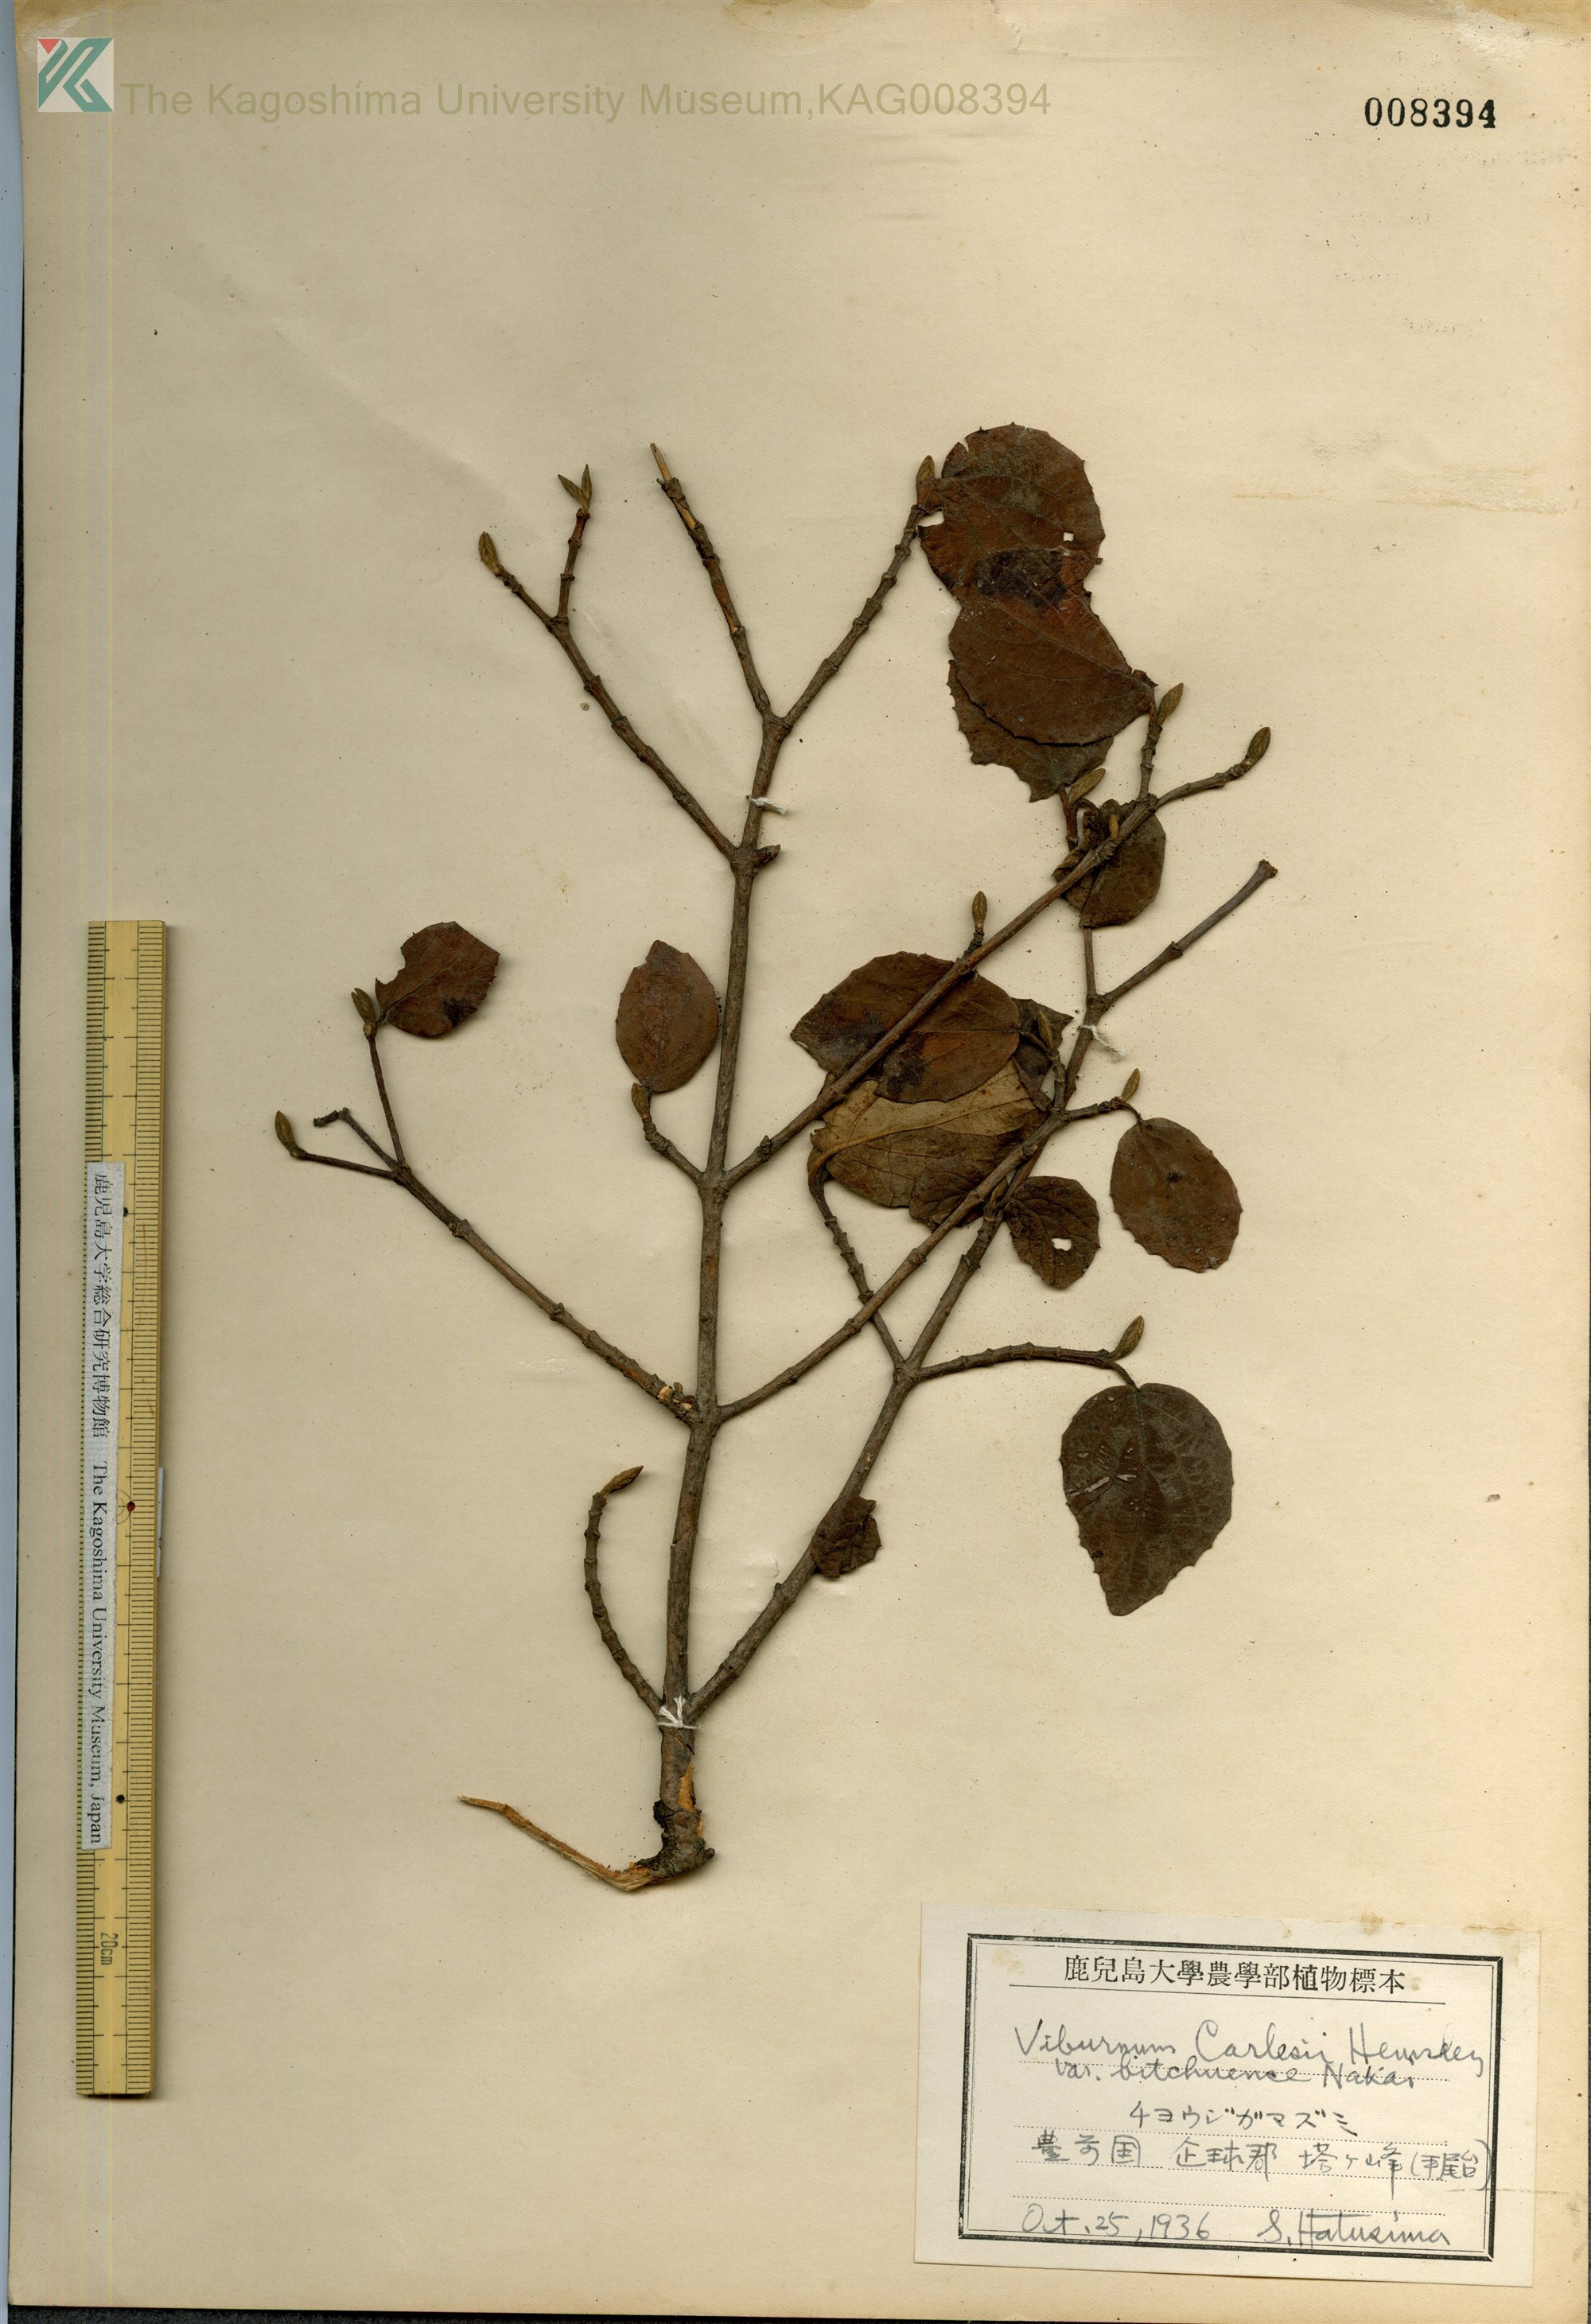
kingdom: Plantae
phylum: Tracheophyta
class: Magnoliopsida
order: Dipsacales
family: Viburnaceae
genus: Viburnum
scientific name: Viburnum carlesii
